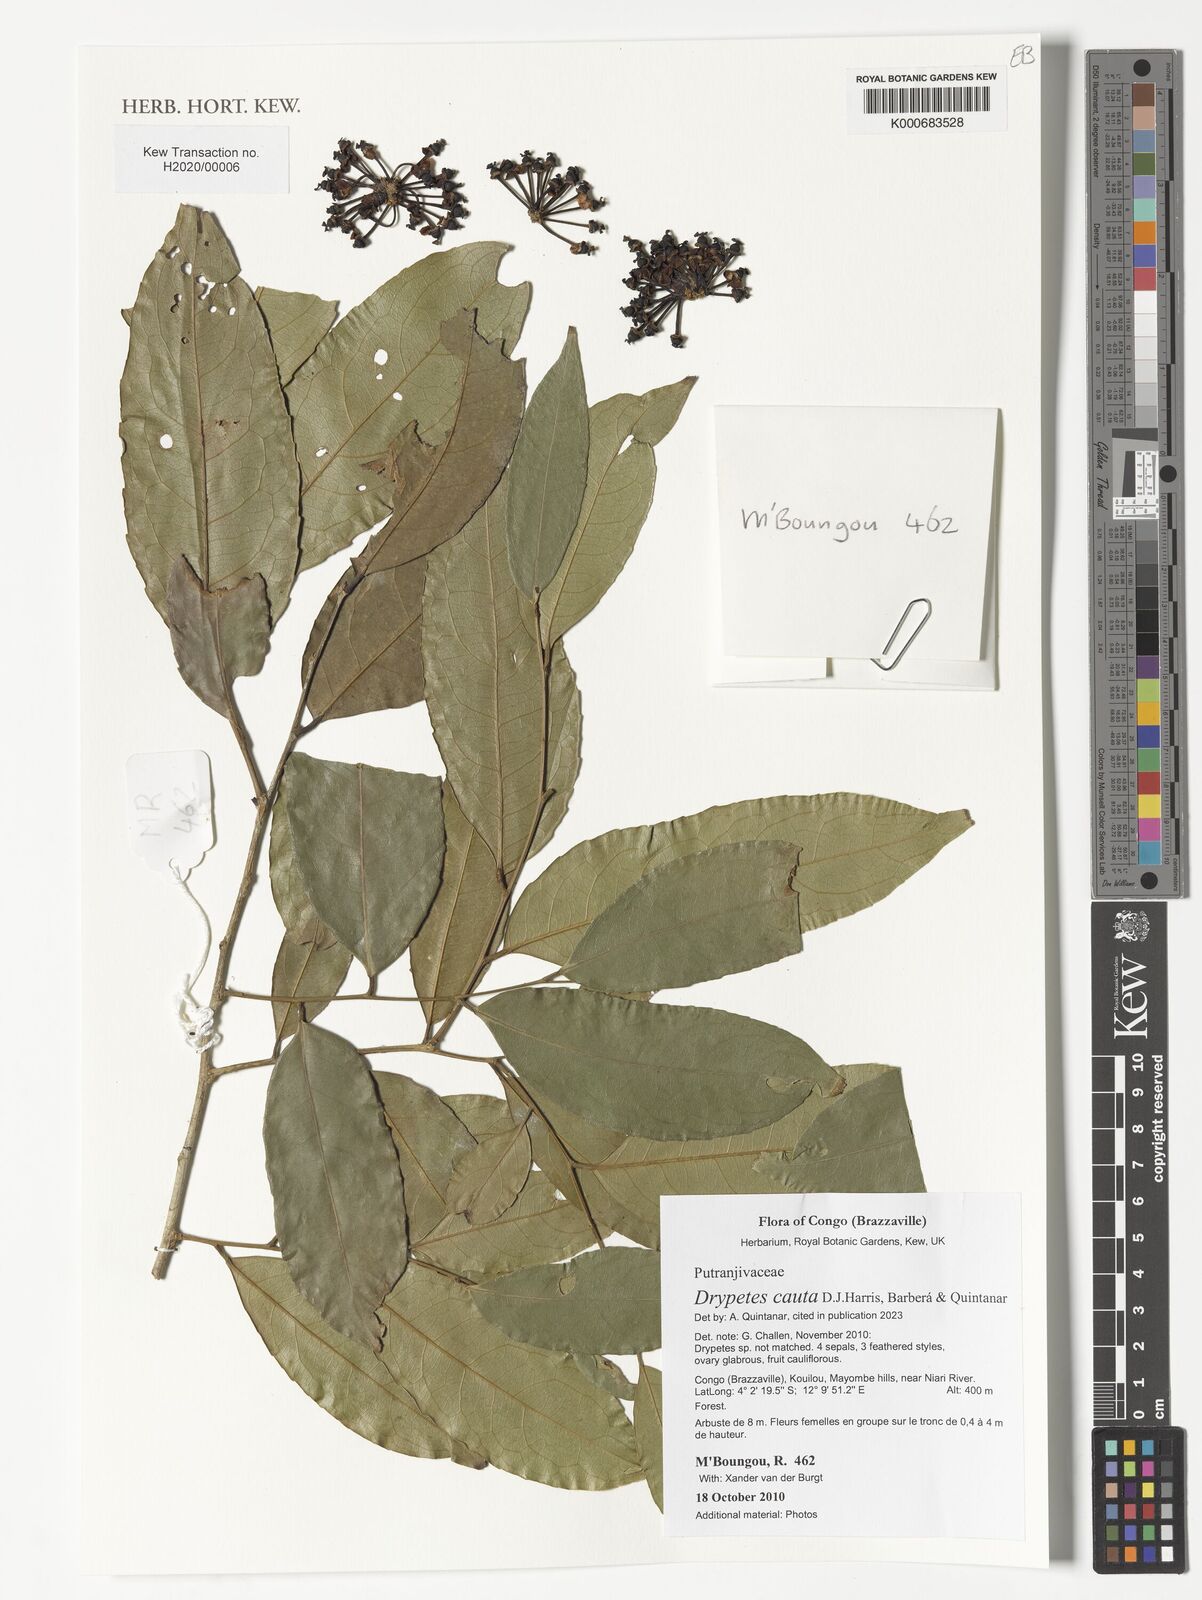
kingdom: Plantae
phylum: Tracheophyta
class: Magnoliopsida
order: Malpighiales
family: Putranjivaceae
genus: Drypetes
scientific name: Drypetes
